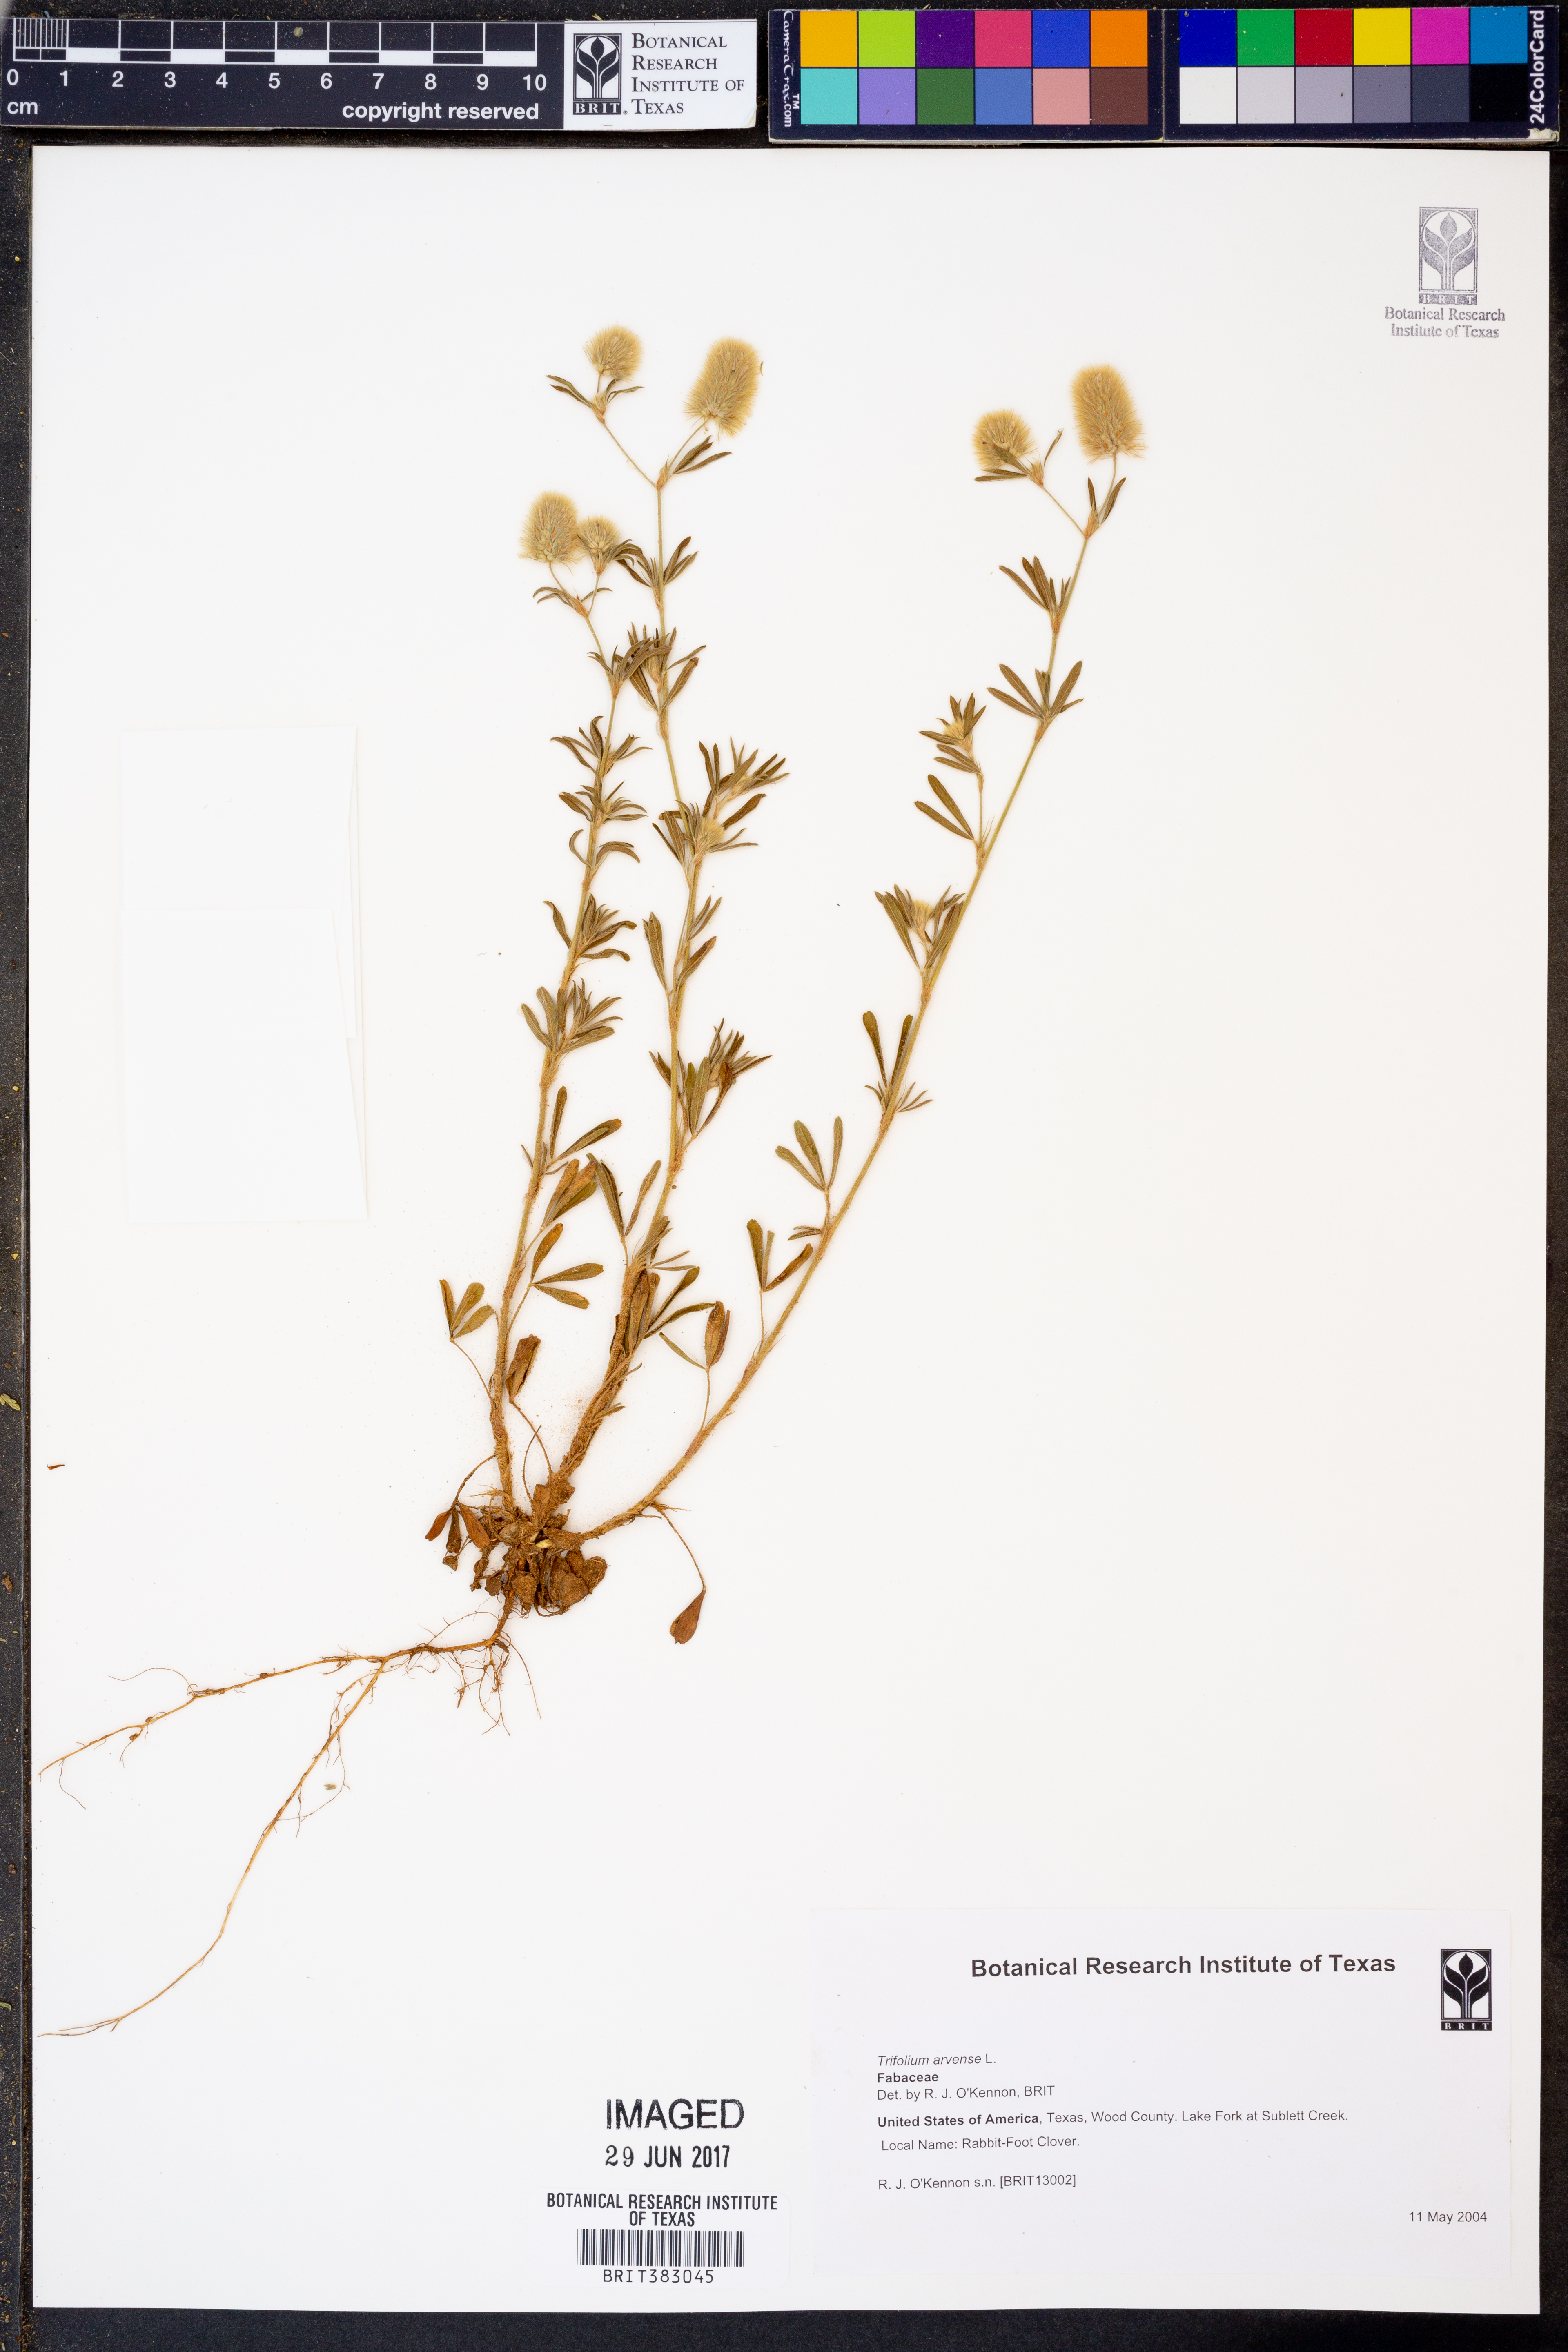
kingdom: Plantae
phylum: Tracheophyta
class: Magnoliopsida
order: Fabales
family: Fabaceae
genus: Trifolium
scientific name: Trifolium arvense
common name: Hare's-foot clover
